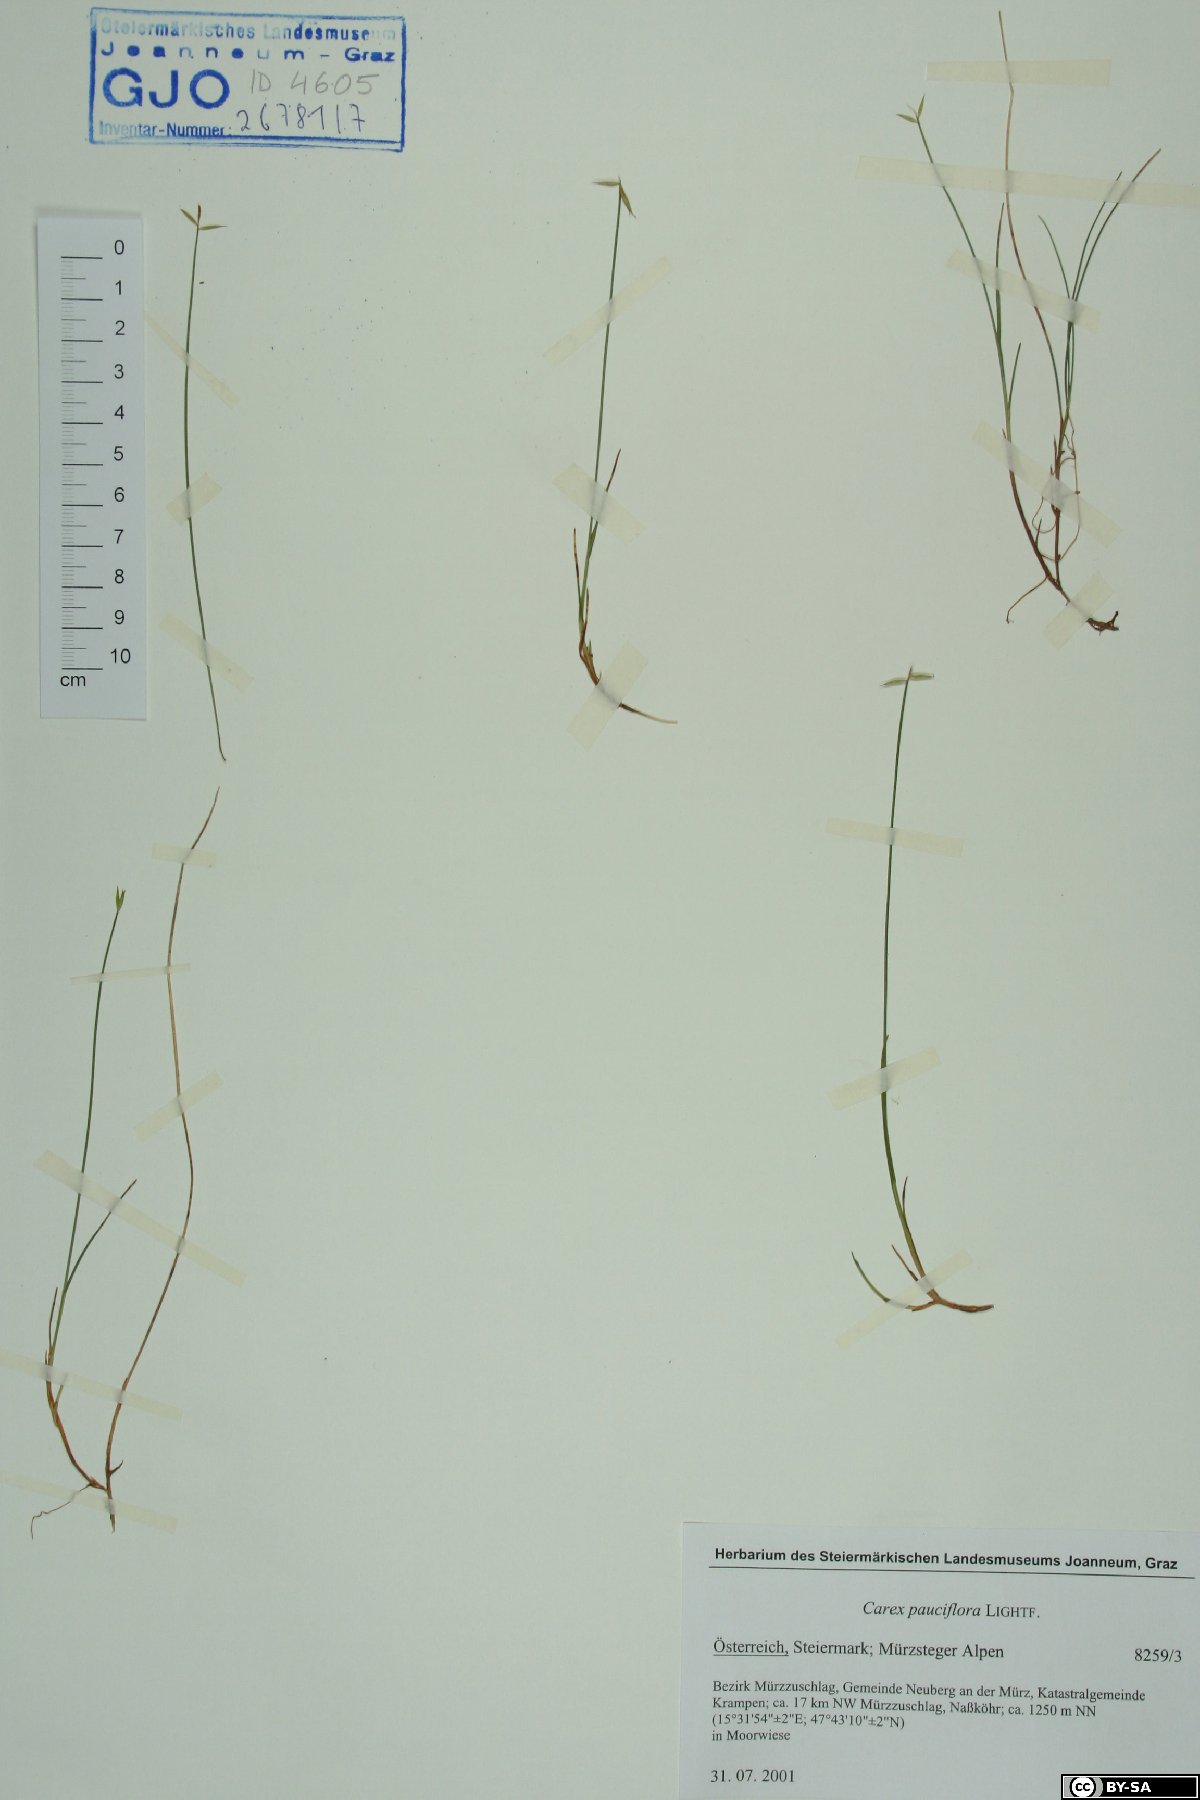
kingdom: Plantae
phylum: Tracheophyta
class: Liliopsida
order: Poales
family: Cyperaceae
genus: Carex
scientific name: Carex pauciflora
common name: Few-flowered sedge
